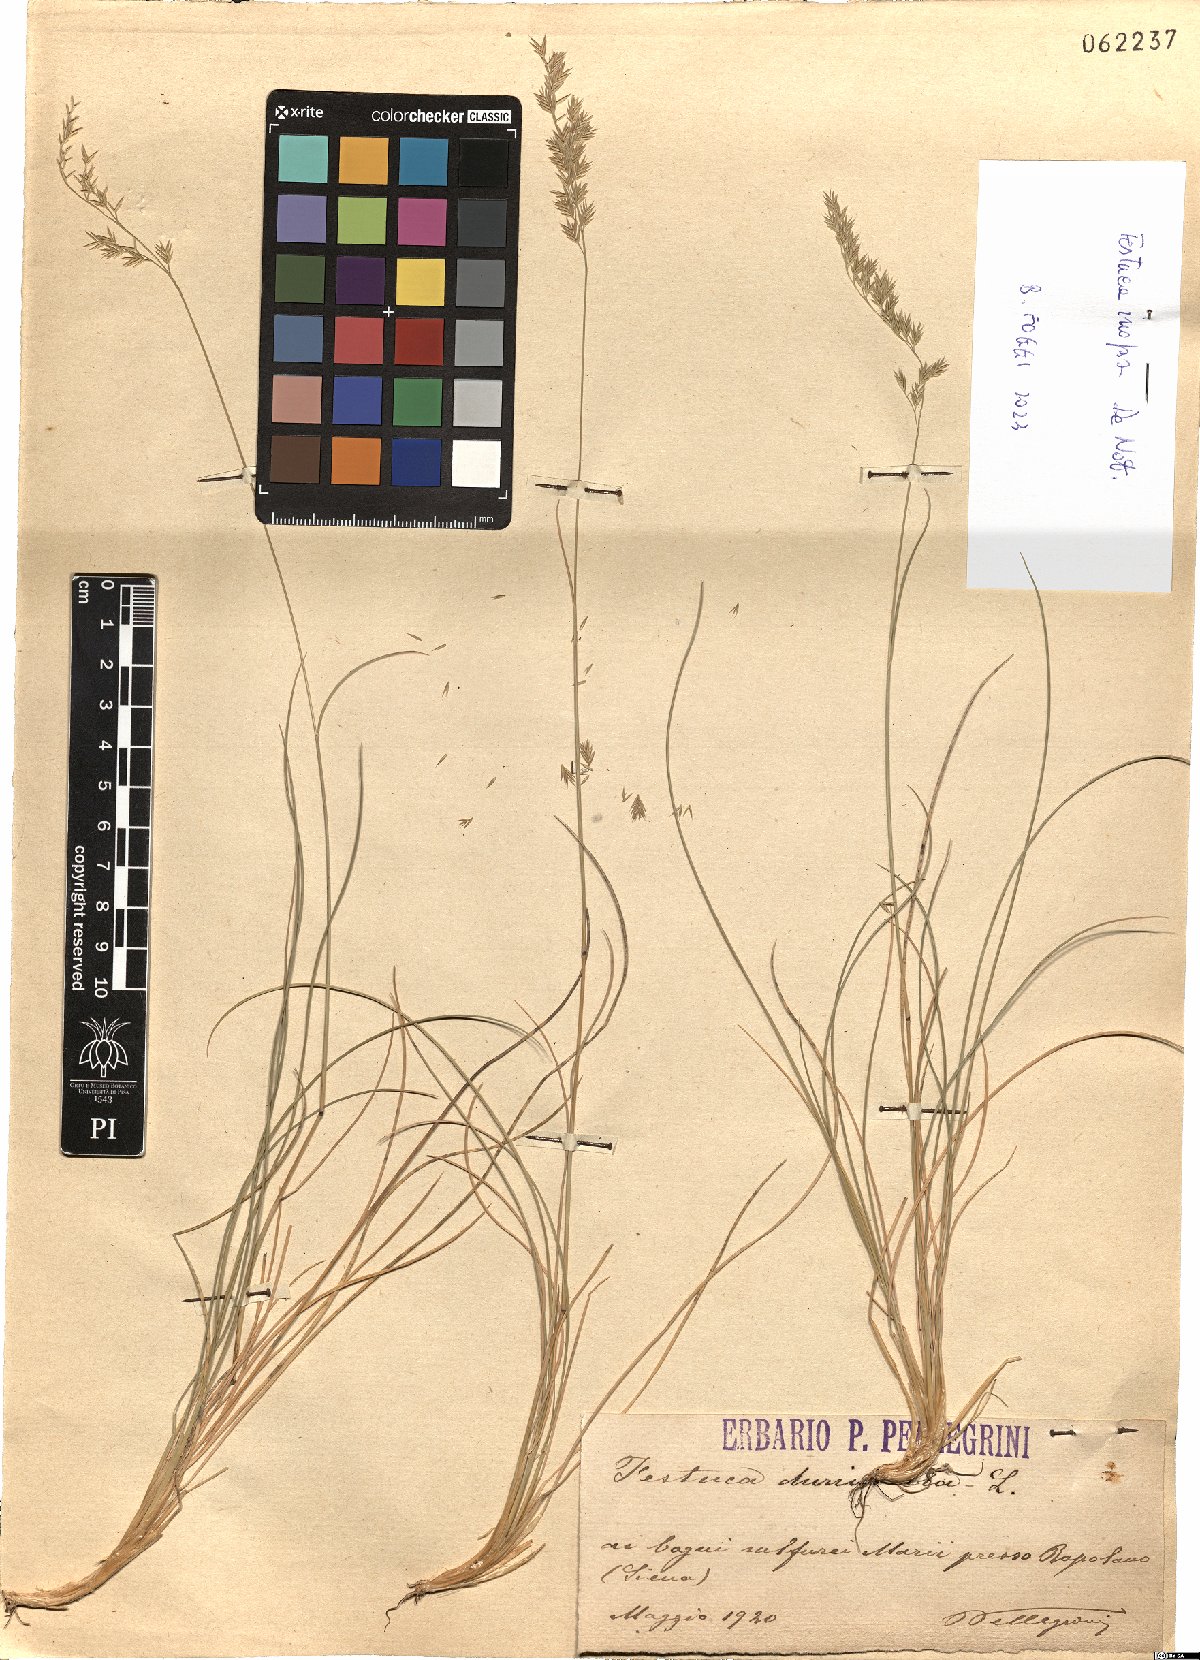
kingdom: Plantae
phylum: Tracheophyta
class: Liliopsida
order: Poales
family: Poaceae
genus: Festuca
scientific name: Festuca inops
